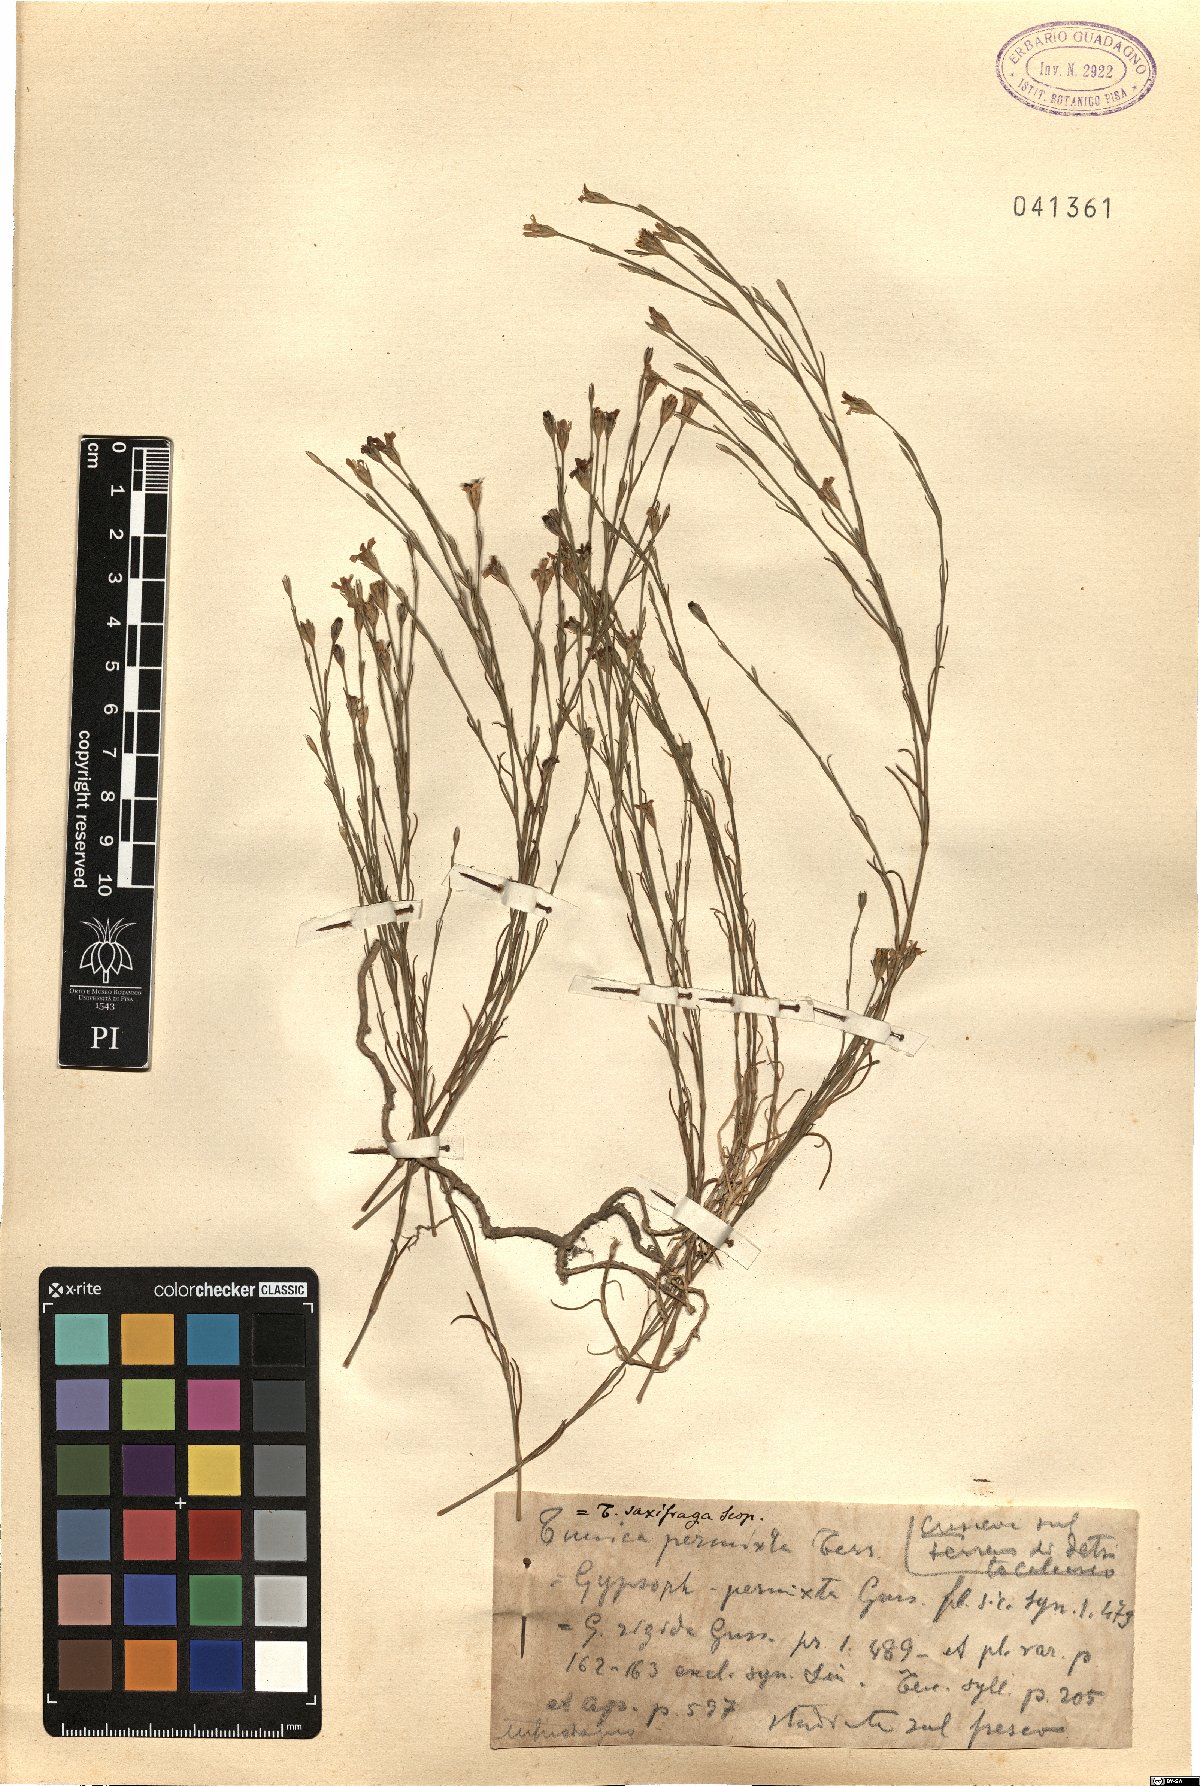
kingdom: Plantae
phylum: Tracheophyta
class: Magnoliopsida
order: Caryophyllales
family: Caryophyllaceae
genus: Petrorhagia
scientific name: Petrorhagia saxifraga
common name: Tunicflower
